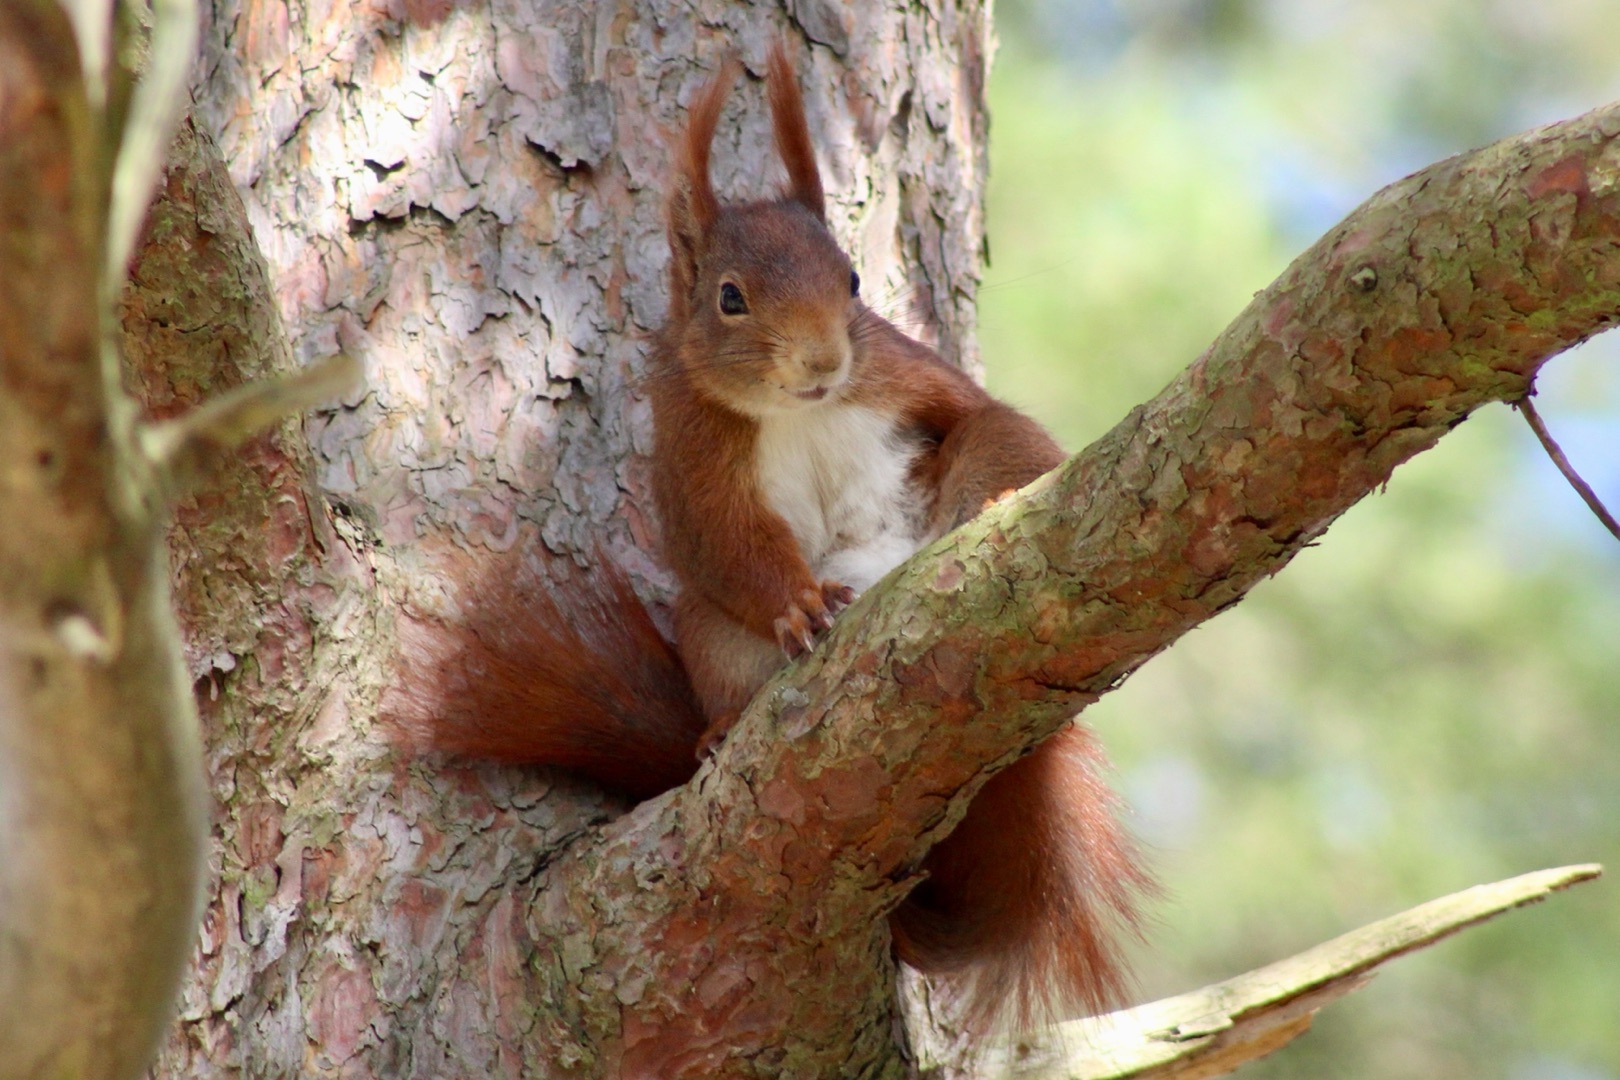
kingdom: Animalia
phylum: Chordata
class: Mammalia
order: Rodentia
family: Sciuridae
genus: Sciurus
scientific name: Sciurus vulgaris
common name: Egern
